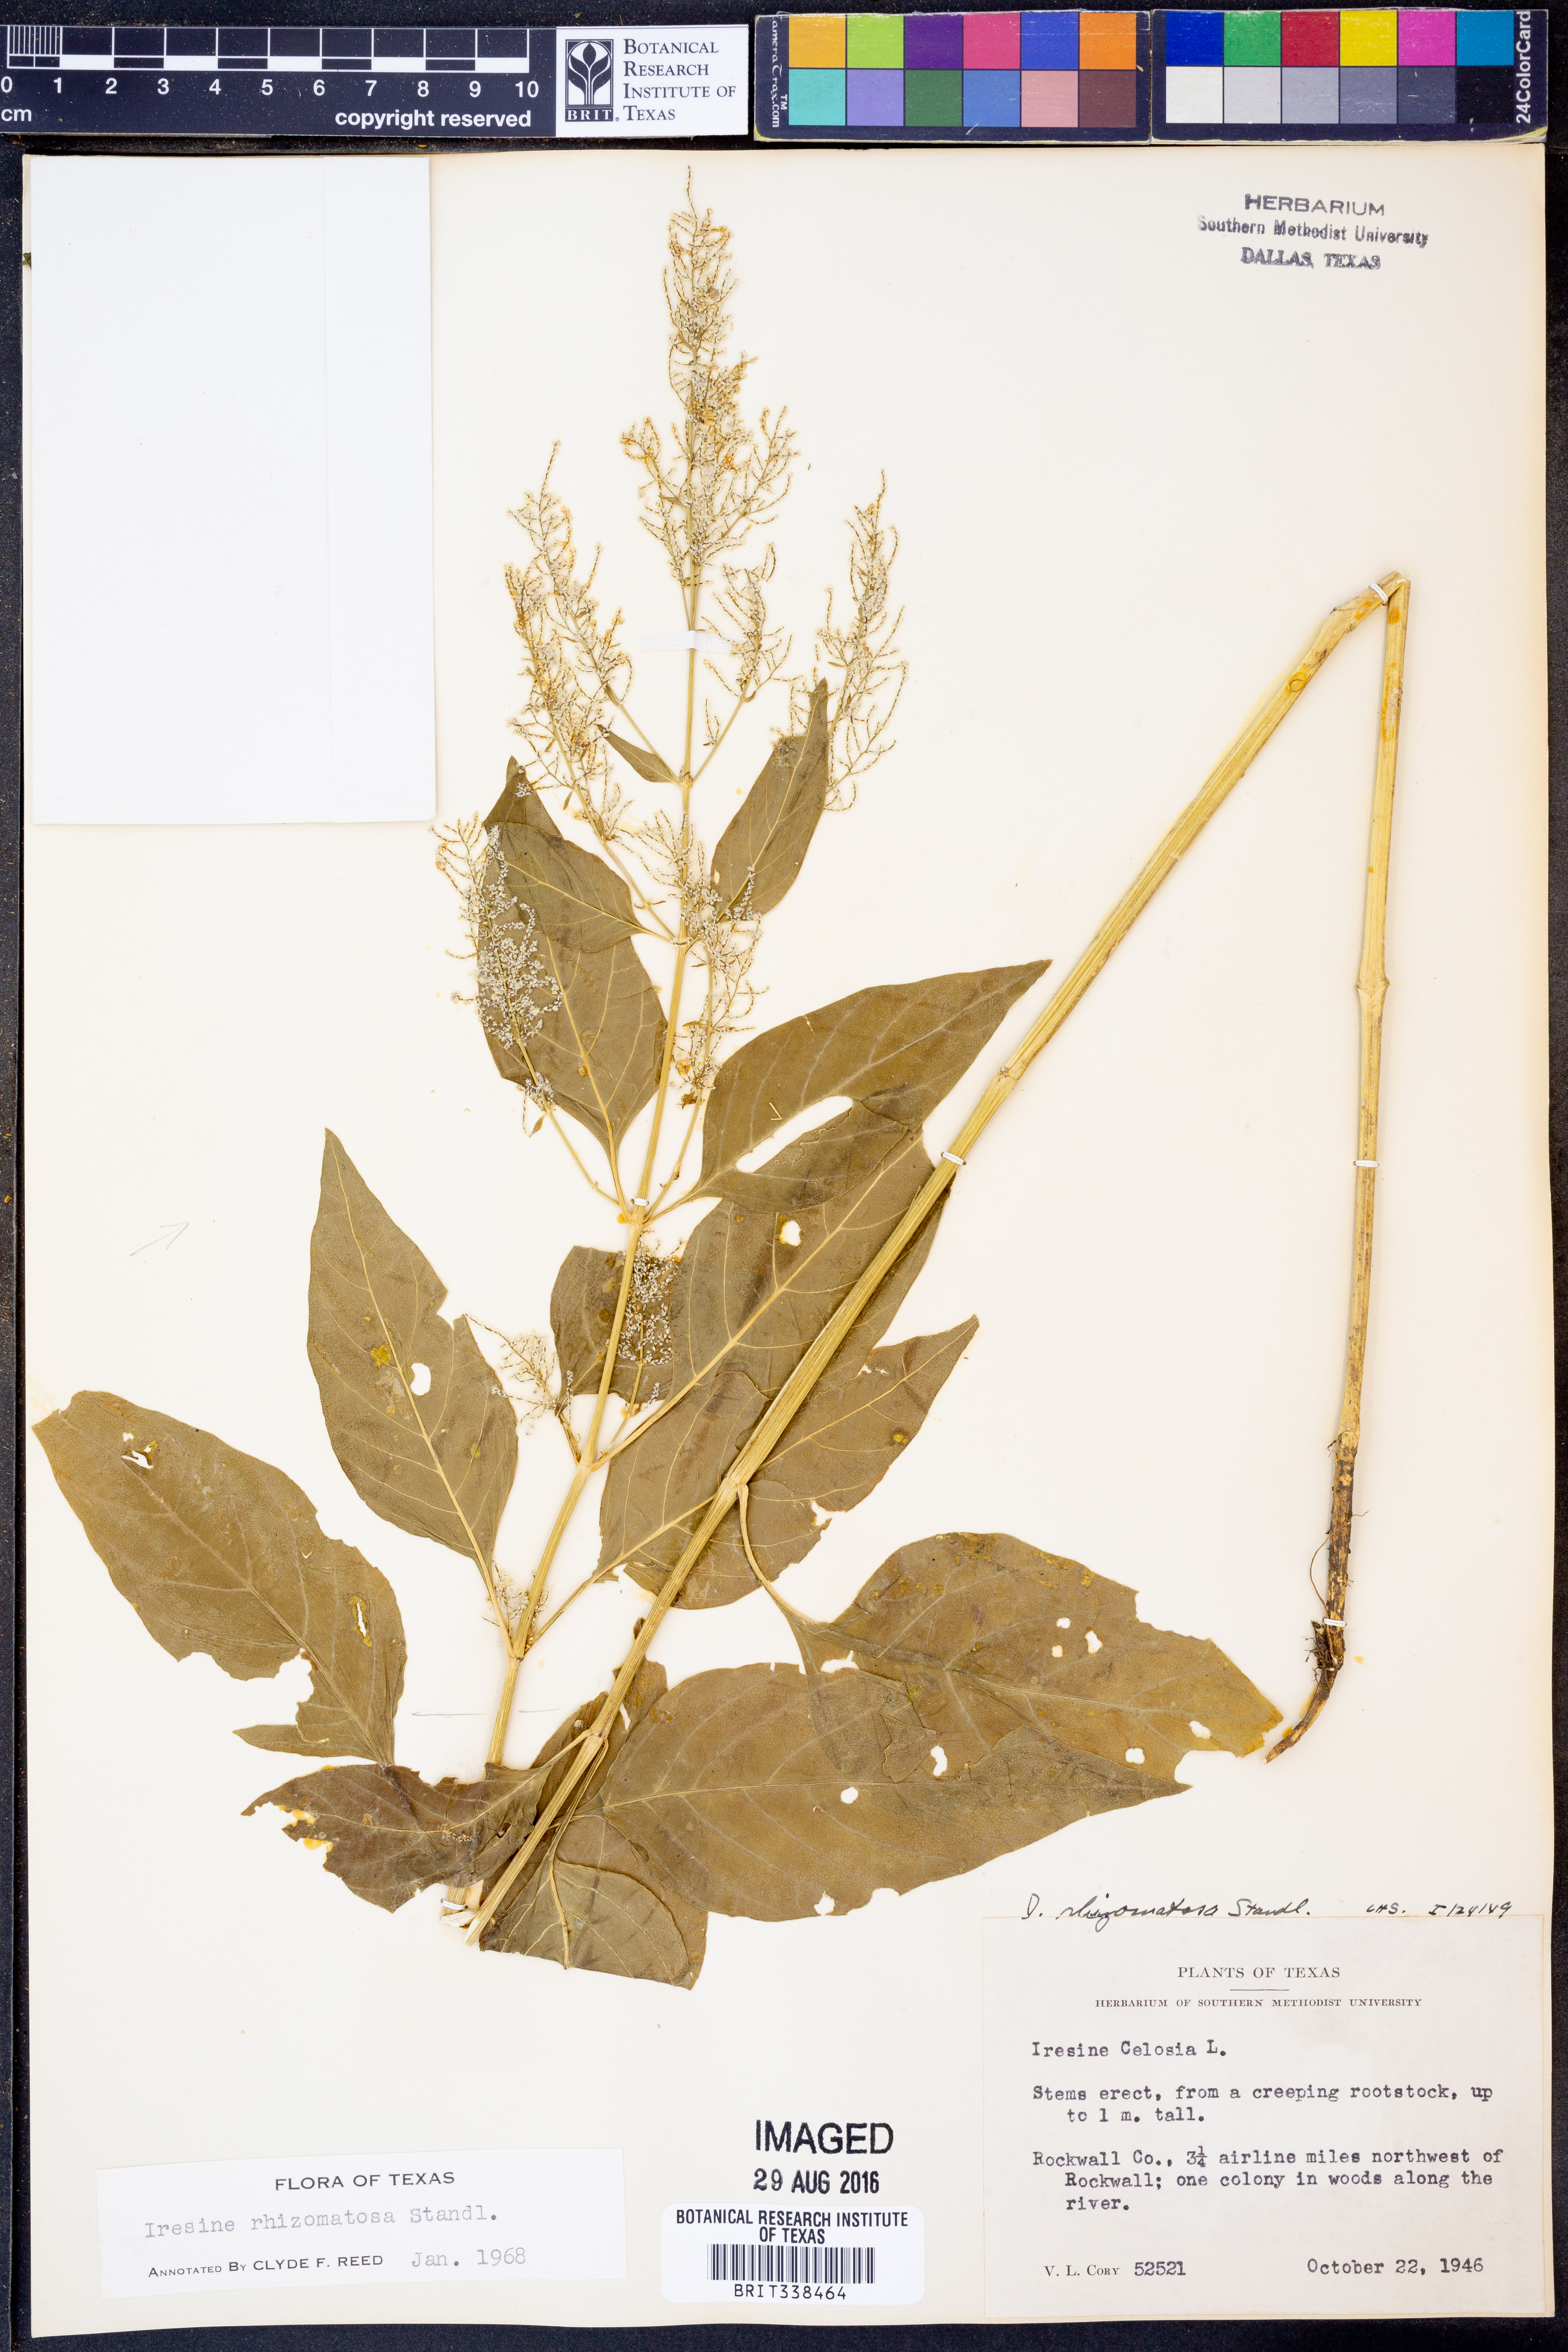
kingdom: Plantae
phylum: Tracheophyta
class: Magnoliopsida
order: Caryophyllales
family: Amaranthaceae
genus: Iresine
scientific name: Iresine rhizomatosa
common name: Juda's-bush
